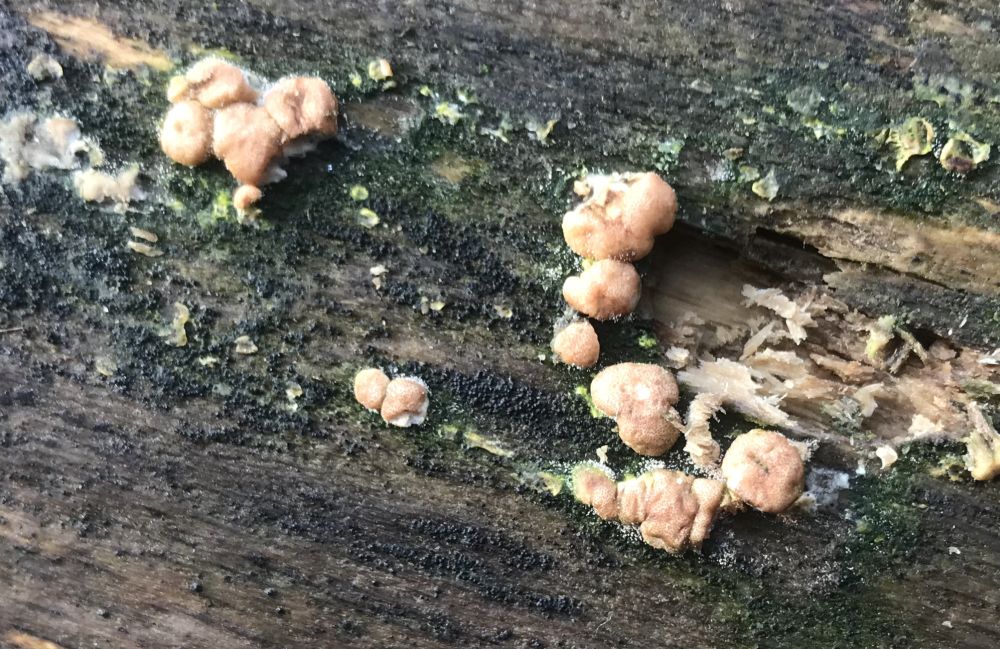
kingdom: Fungi
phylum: Ascomycota
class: Sordariomycetes
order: Hypocreales
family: Hypocreaceae
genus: Trichoderma
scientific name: Trichoderma europaeum
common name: rosabrun kødkerne
